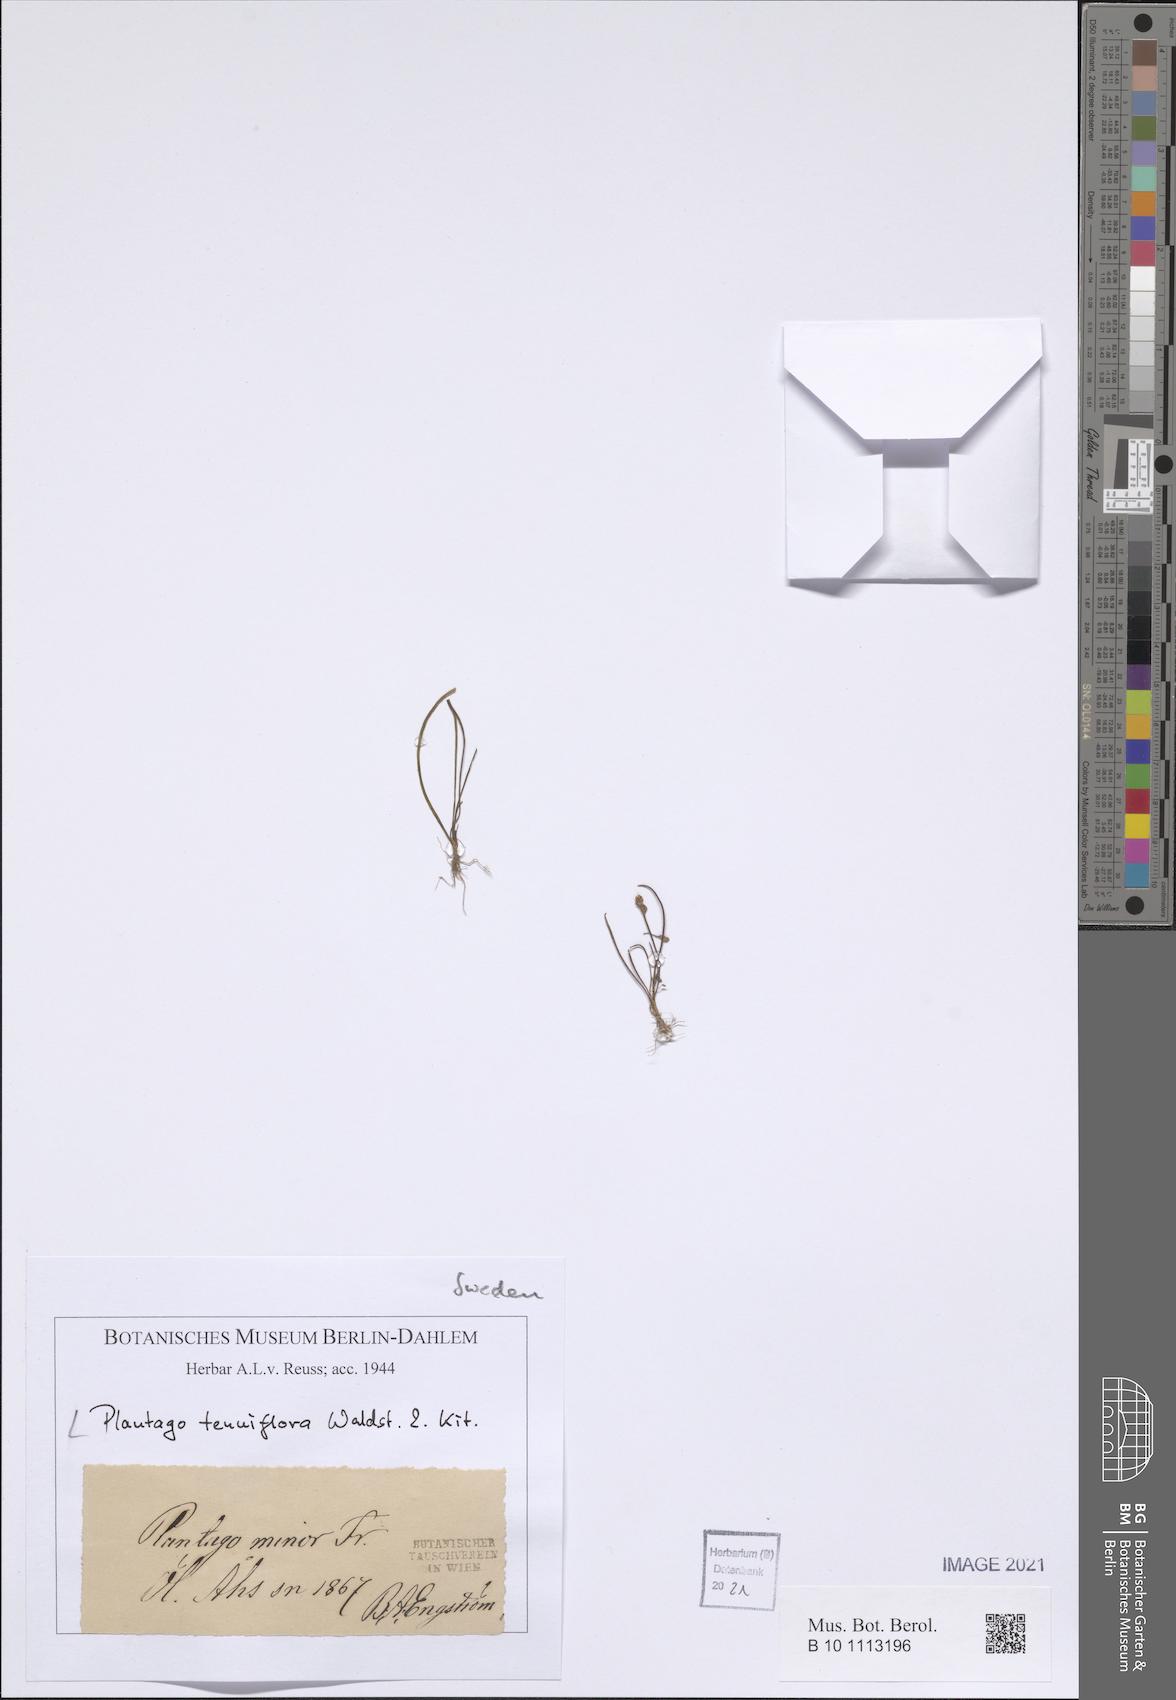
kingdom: Plantae
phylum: Tracheophyta
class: Magnoliopsida
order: Lamiales
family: Plantaginaceae
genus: Plantago
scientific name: Plantago tenuiflora
